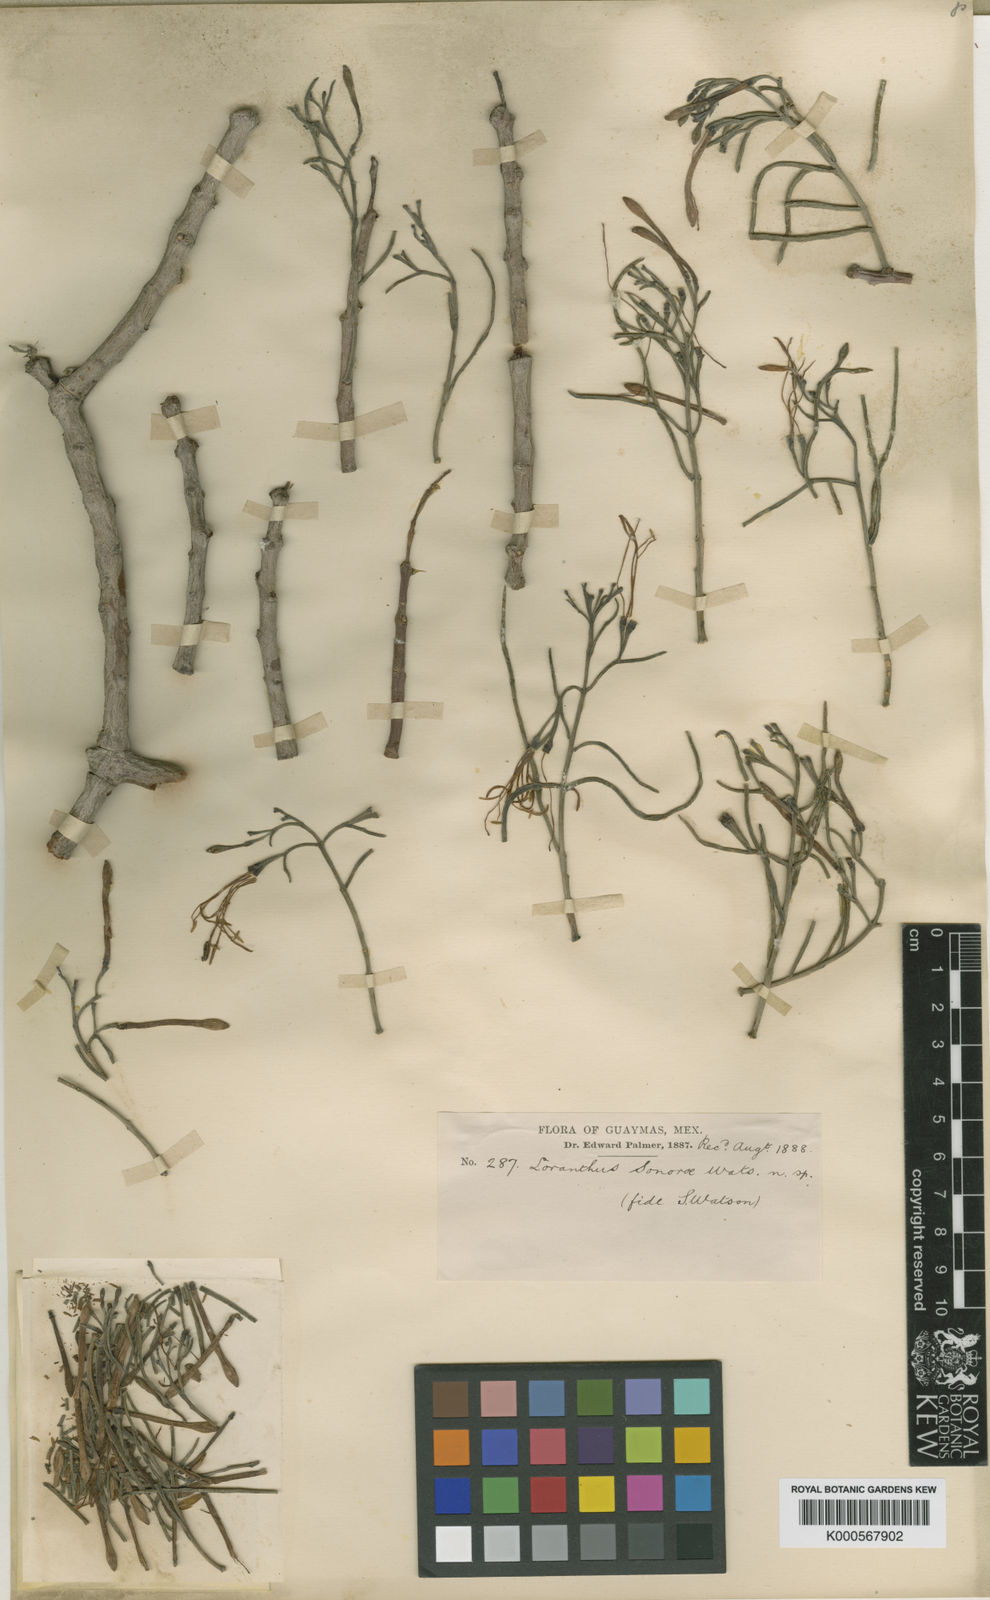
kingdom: Plantae
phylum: Tracheophyta
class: Magnoliopsida
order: Santalales
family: Loranthaceae
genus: Notanthera
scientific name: Notanthera
